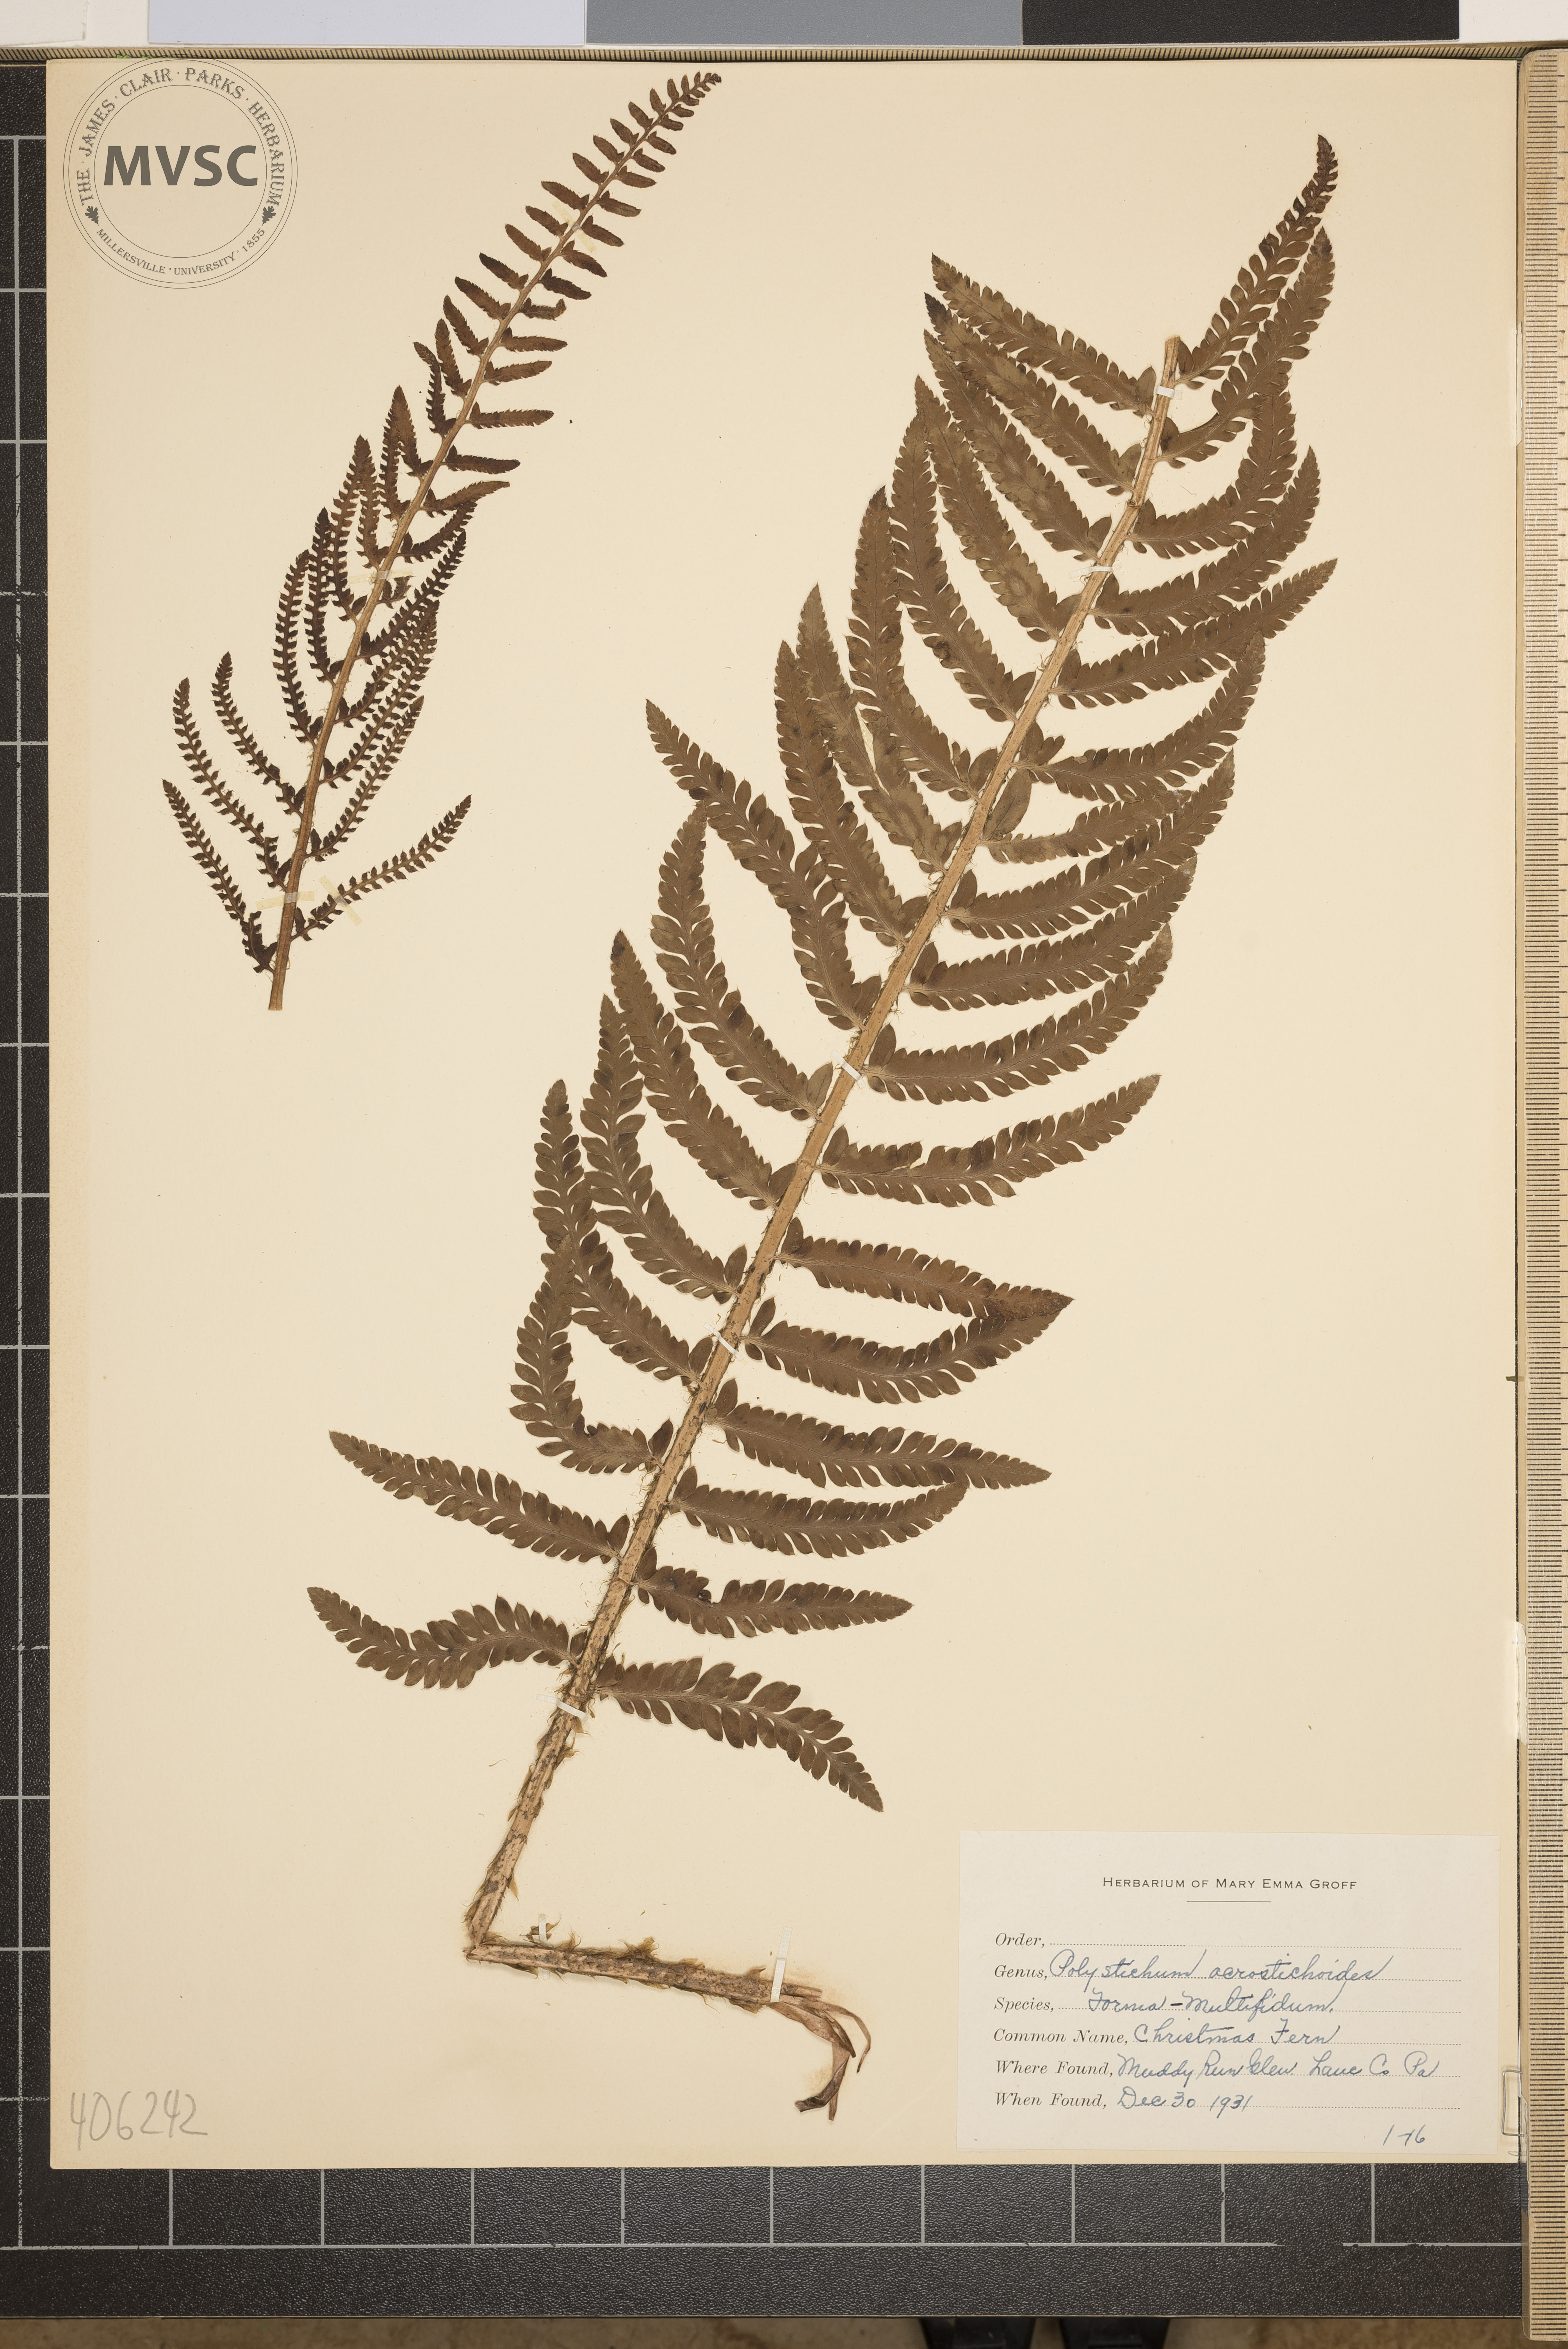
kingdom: Plantae
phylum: Tracheophyta
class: Polypodiopsida
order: Polypodiales
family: Dryopteridaceae
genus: Polystichum
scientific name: Polystichum acrostichoides
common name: Christmas Fern
